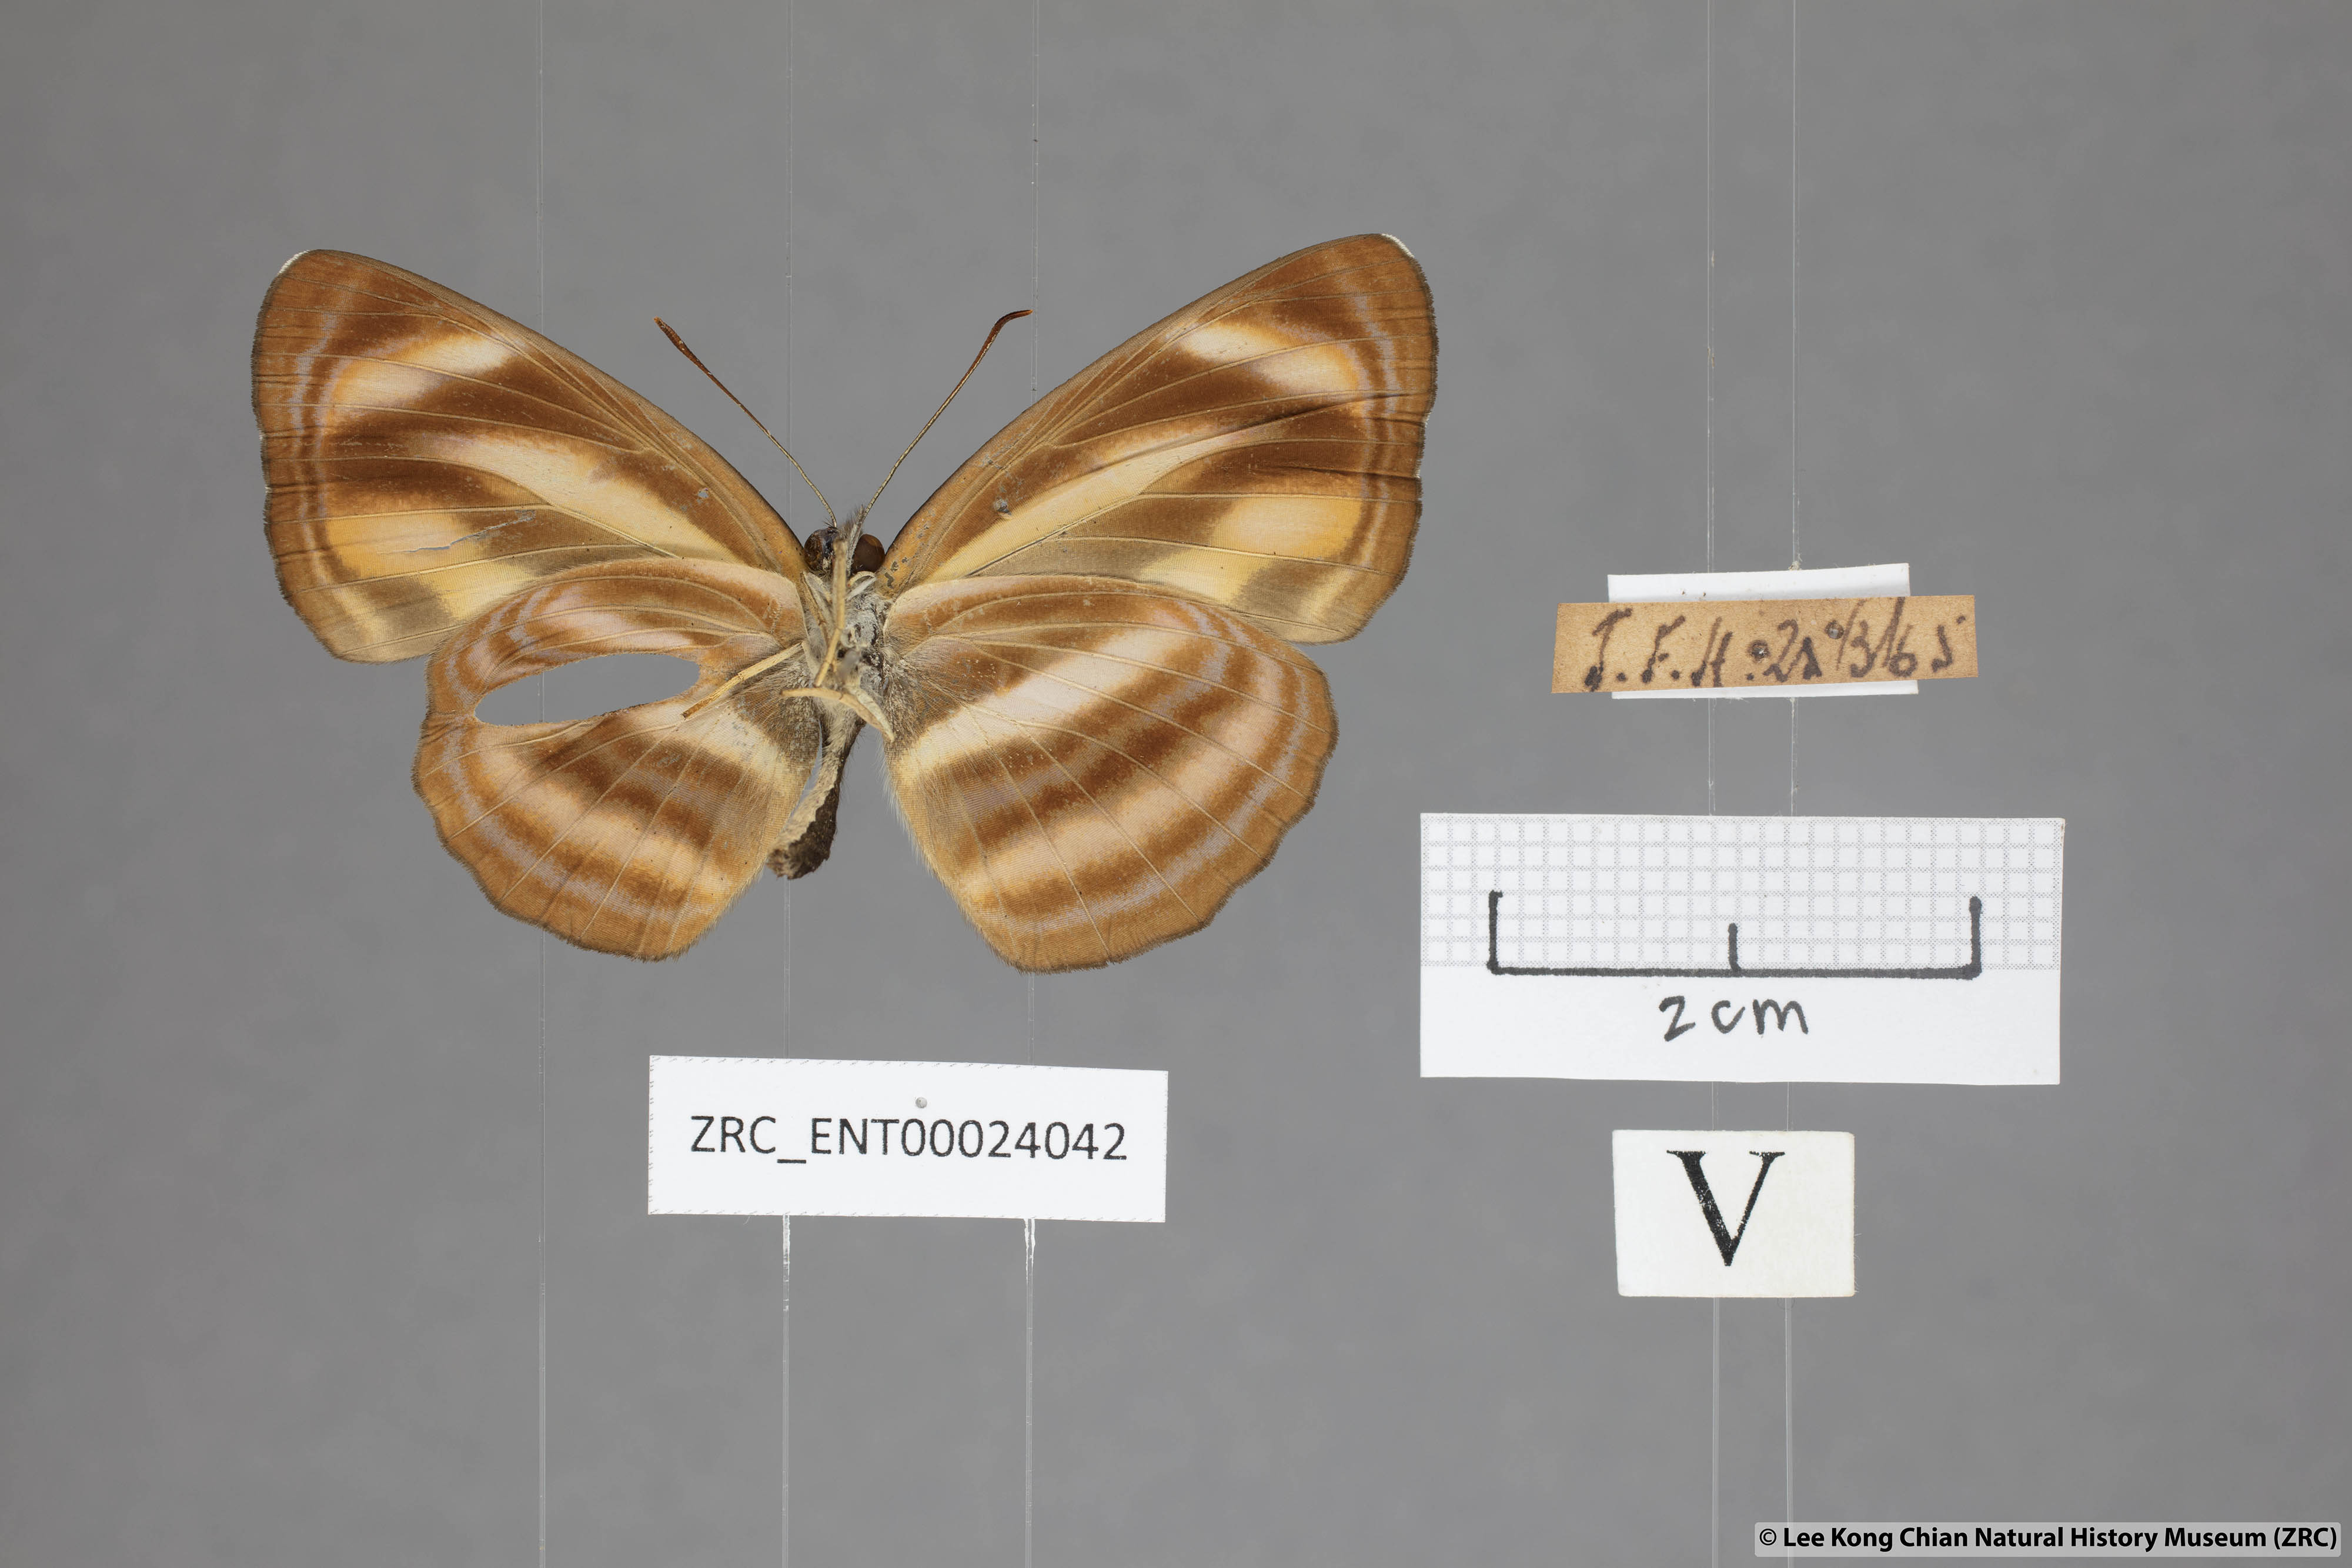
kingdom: Animalia
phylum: Arthropoda
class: Insecta
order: Lepidoptera
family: Nymphalidae
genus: Neptis
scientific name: Neptis miah
